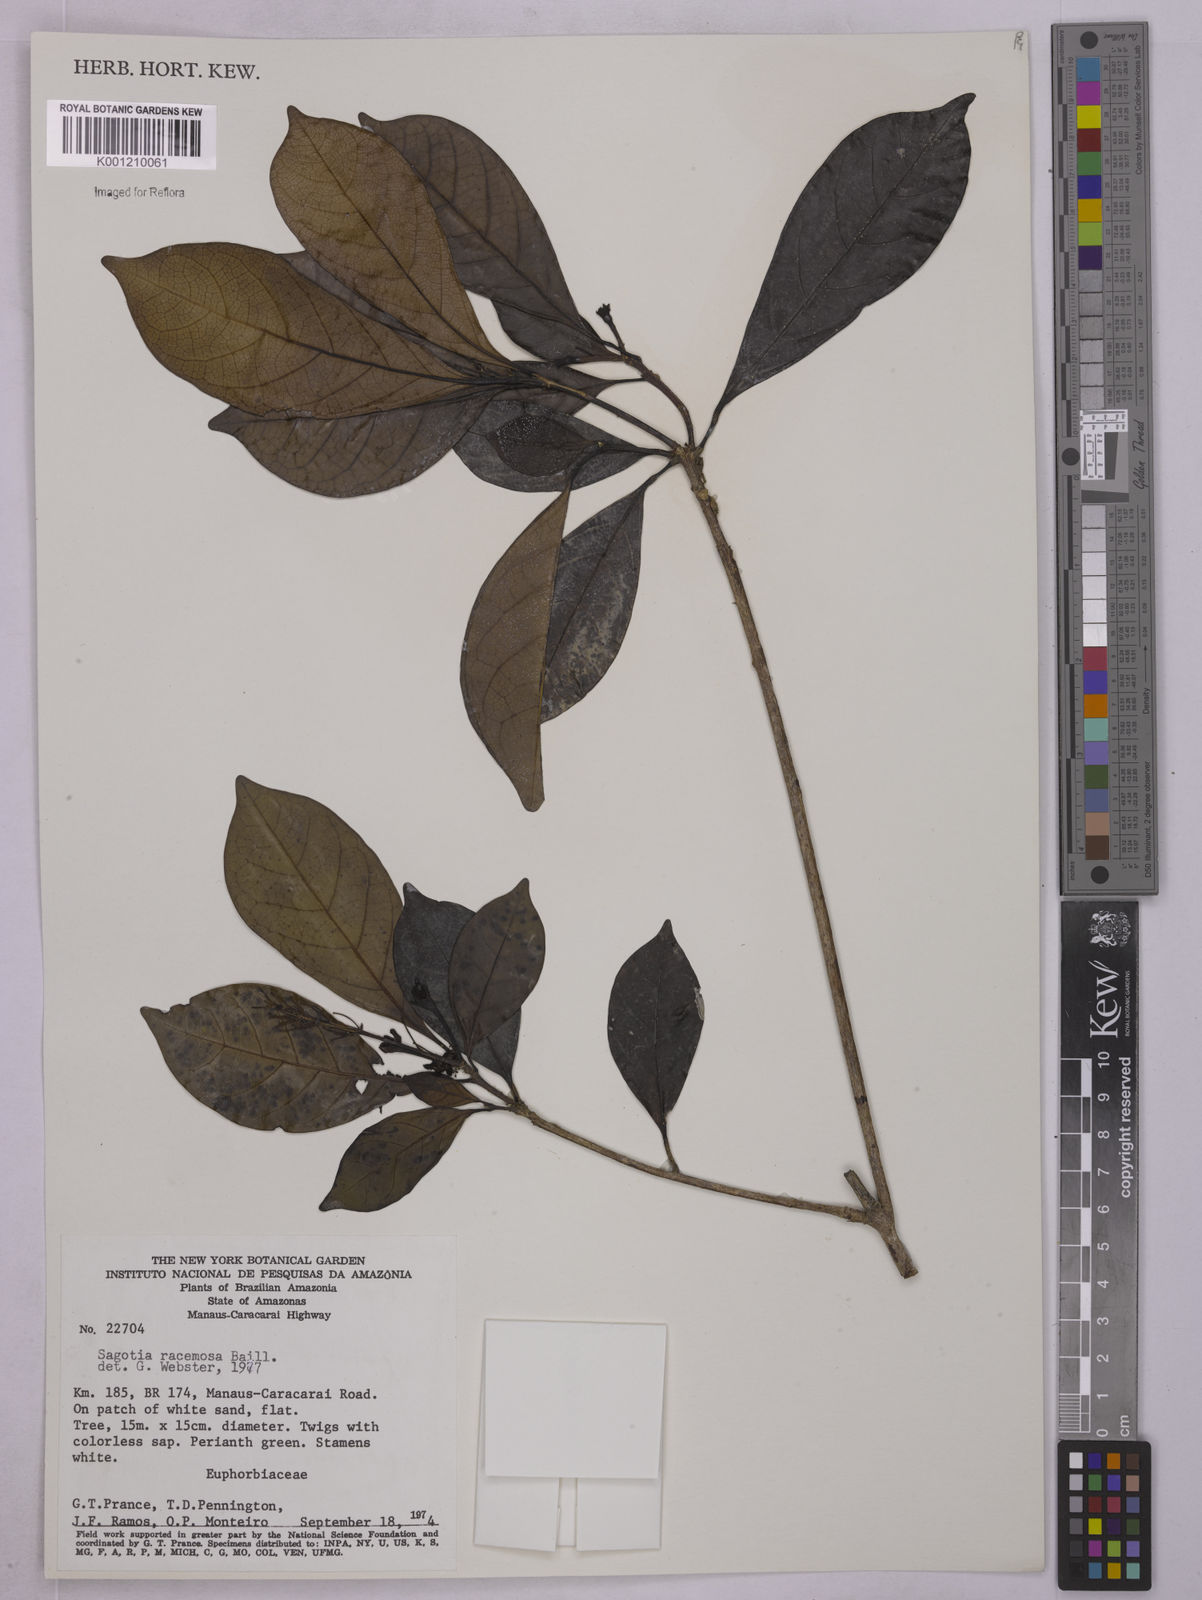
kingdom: Plantae
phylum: Tracheophyta
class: Magnoliopsida
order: Malpighiales
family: Euphorbiaceae
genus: Sagotia
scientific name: Sagotia racemosa
